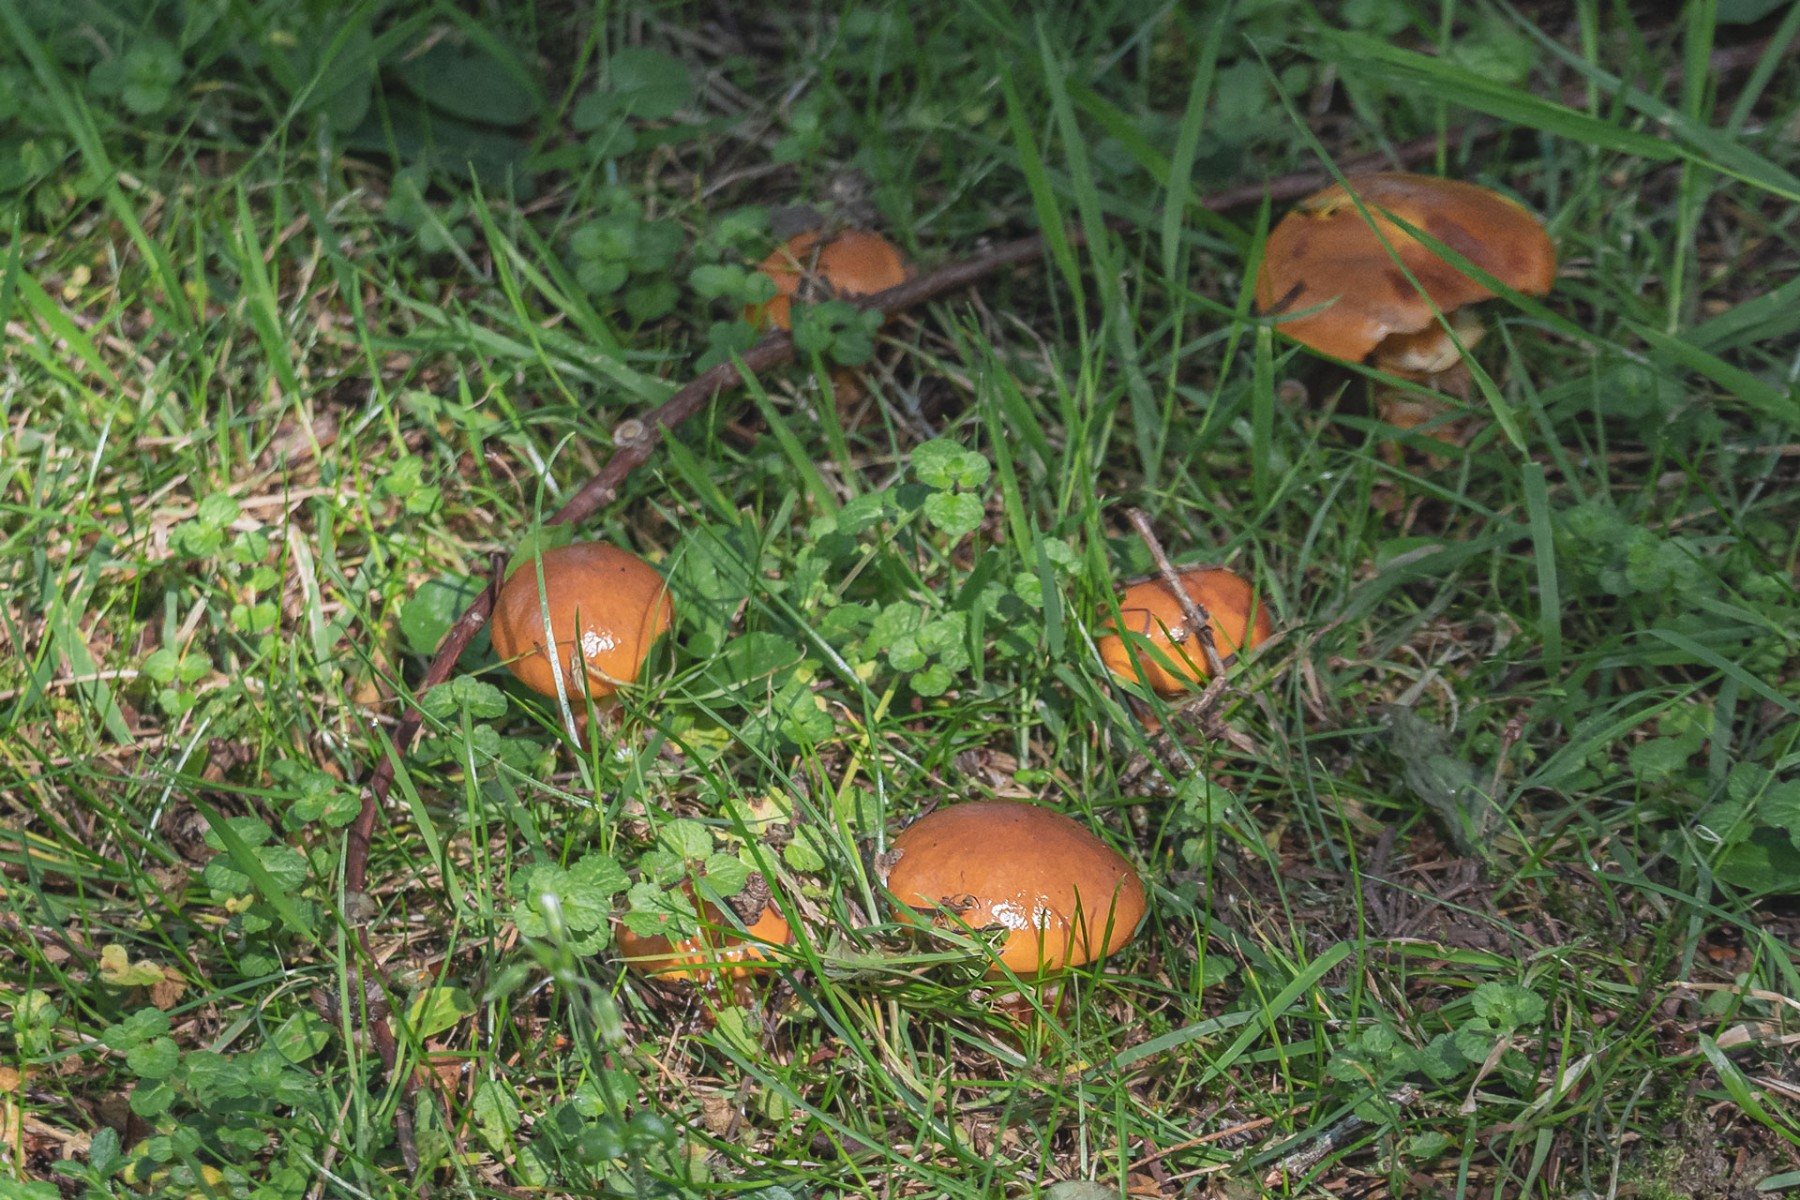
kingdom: Fungi
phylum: Basidiomycota
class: Agaricomycetes
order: Boletales
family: Suillaceae
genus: Suillus
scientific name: Suillus grevillei
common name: lærke-slimrørhat
